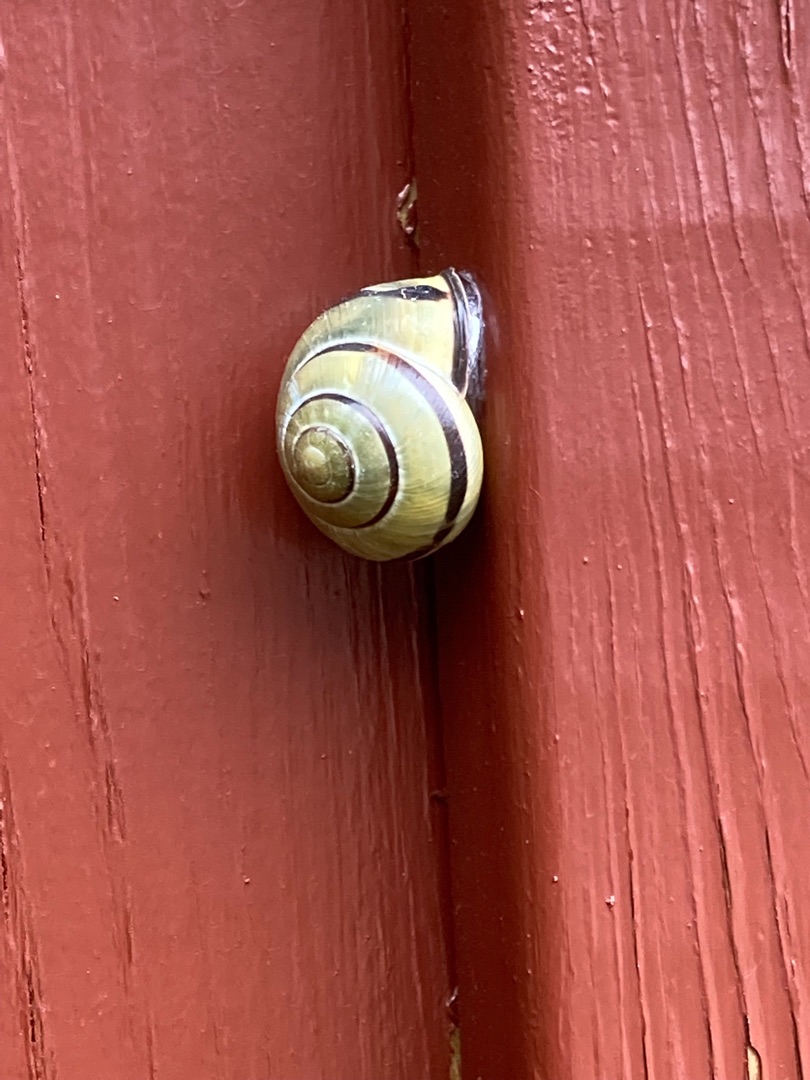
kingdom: Animalia
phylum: Mollusca
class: Gastropoda
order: Stylommatophora
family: Helicidae
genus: Cepaea
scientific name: Cepaea nemoralis
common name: Lundsnegl
